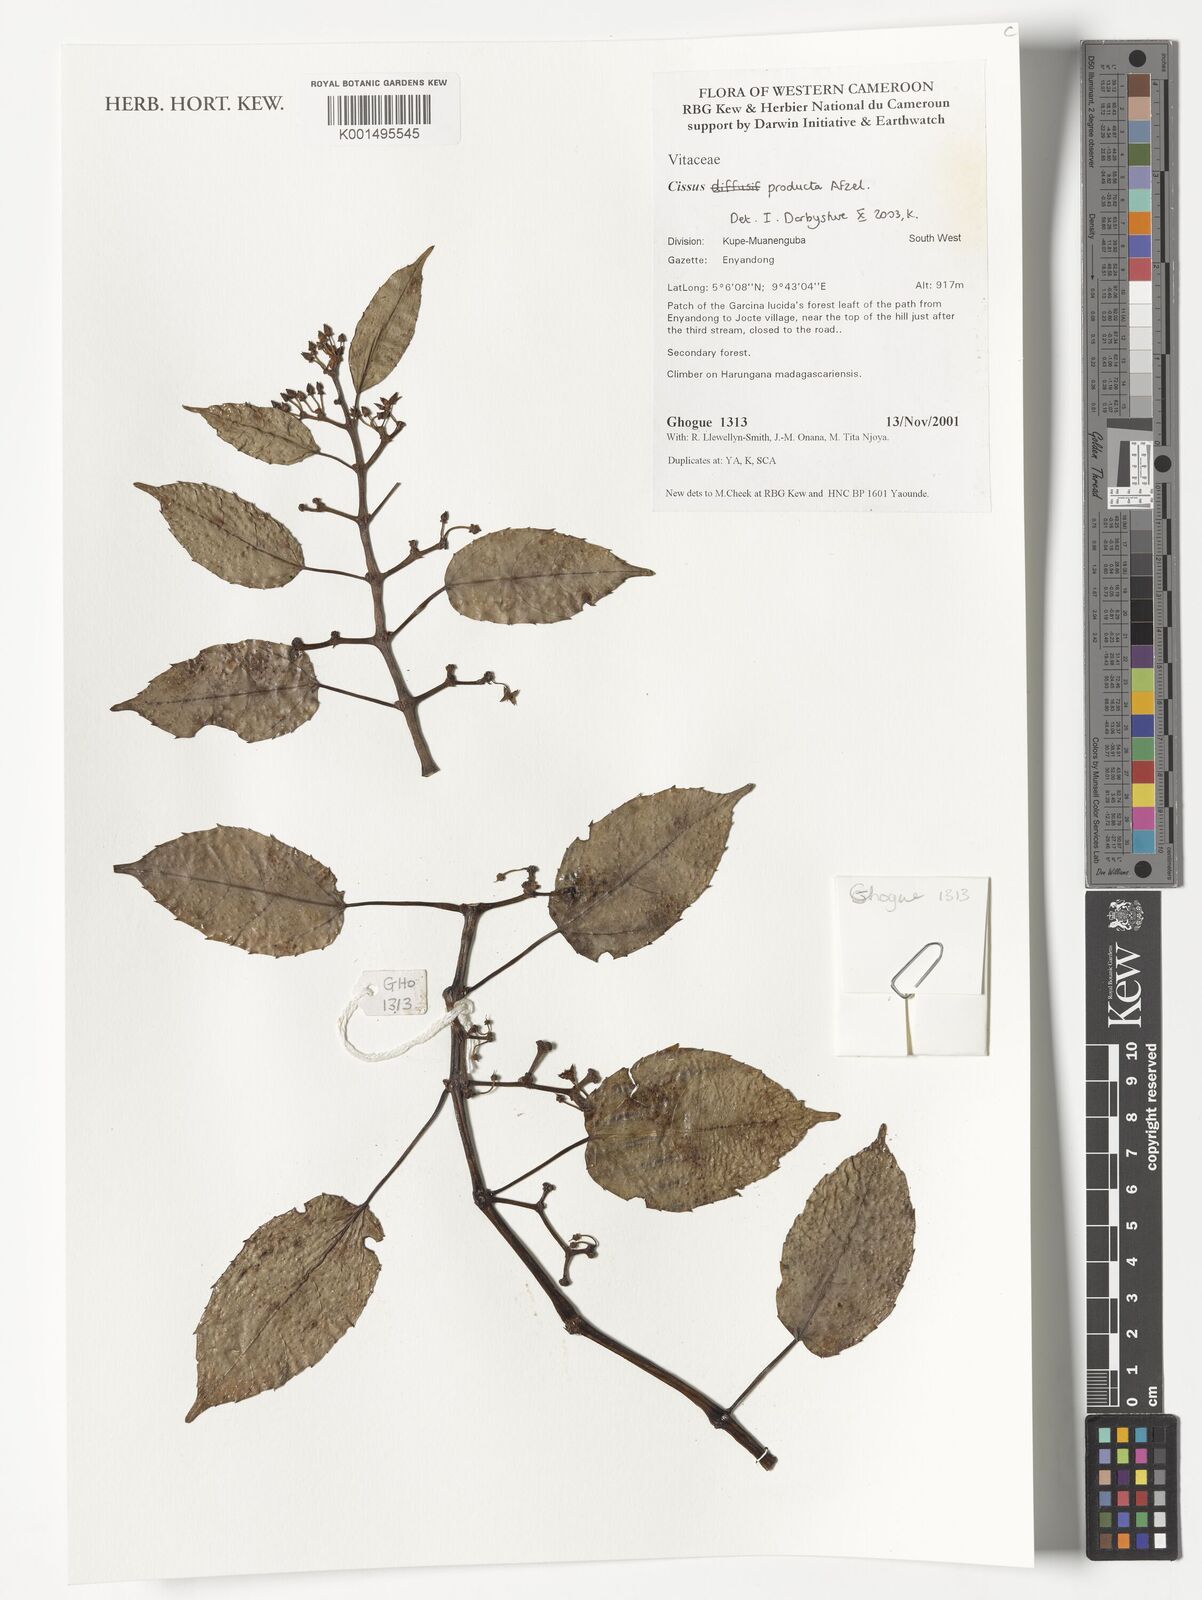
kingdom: Plantae
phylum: Tracheophyta
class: Magnoliopsida
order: Vitales
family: Vitaceae
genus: Cissus
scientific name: Cissus producta
